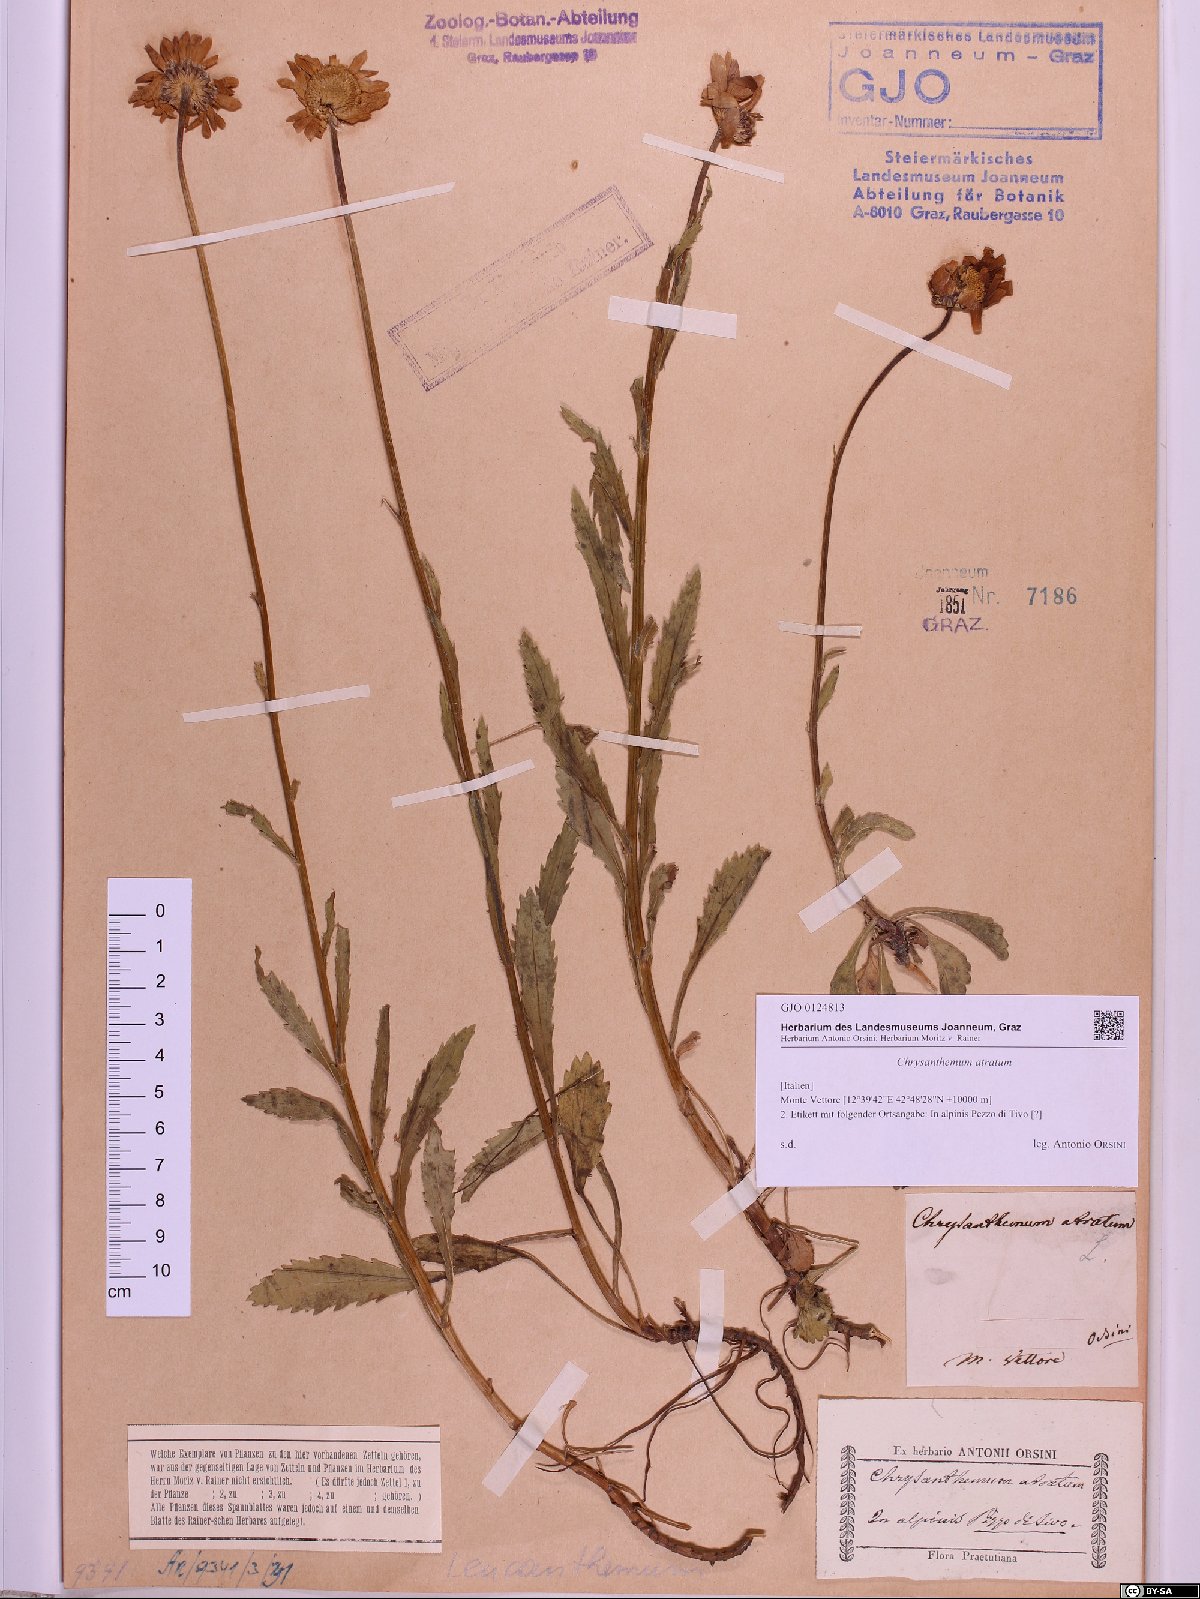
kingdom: Plantae
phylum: Tracheophyta
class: Magnoliopsida
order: Asterales
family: Asteraceae
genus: Leucanthemum
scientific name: Leucanthemum atratum
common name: Saw-leaved moon-daisy
